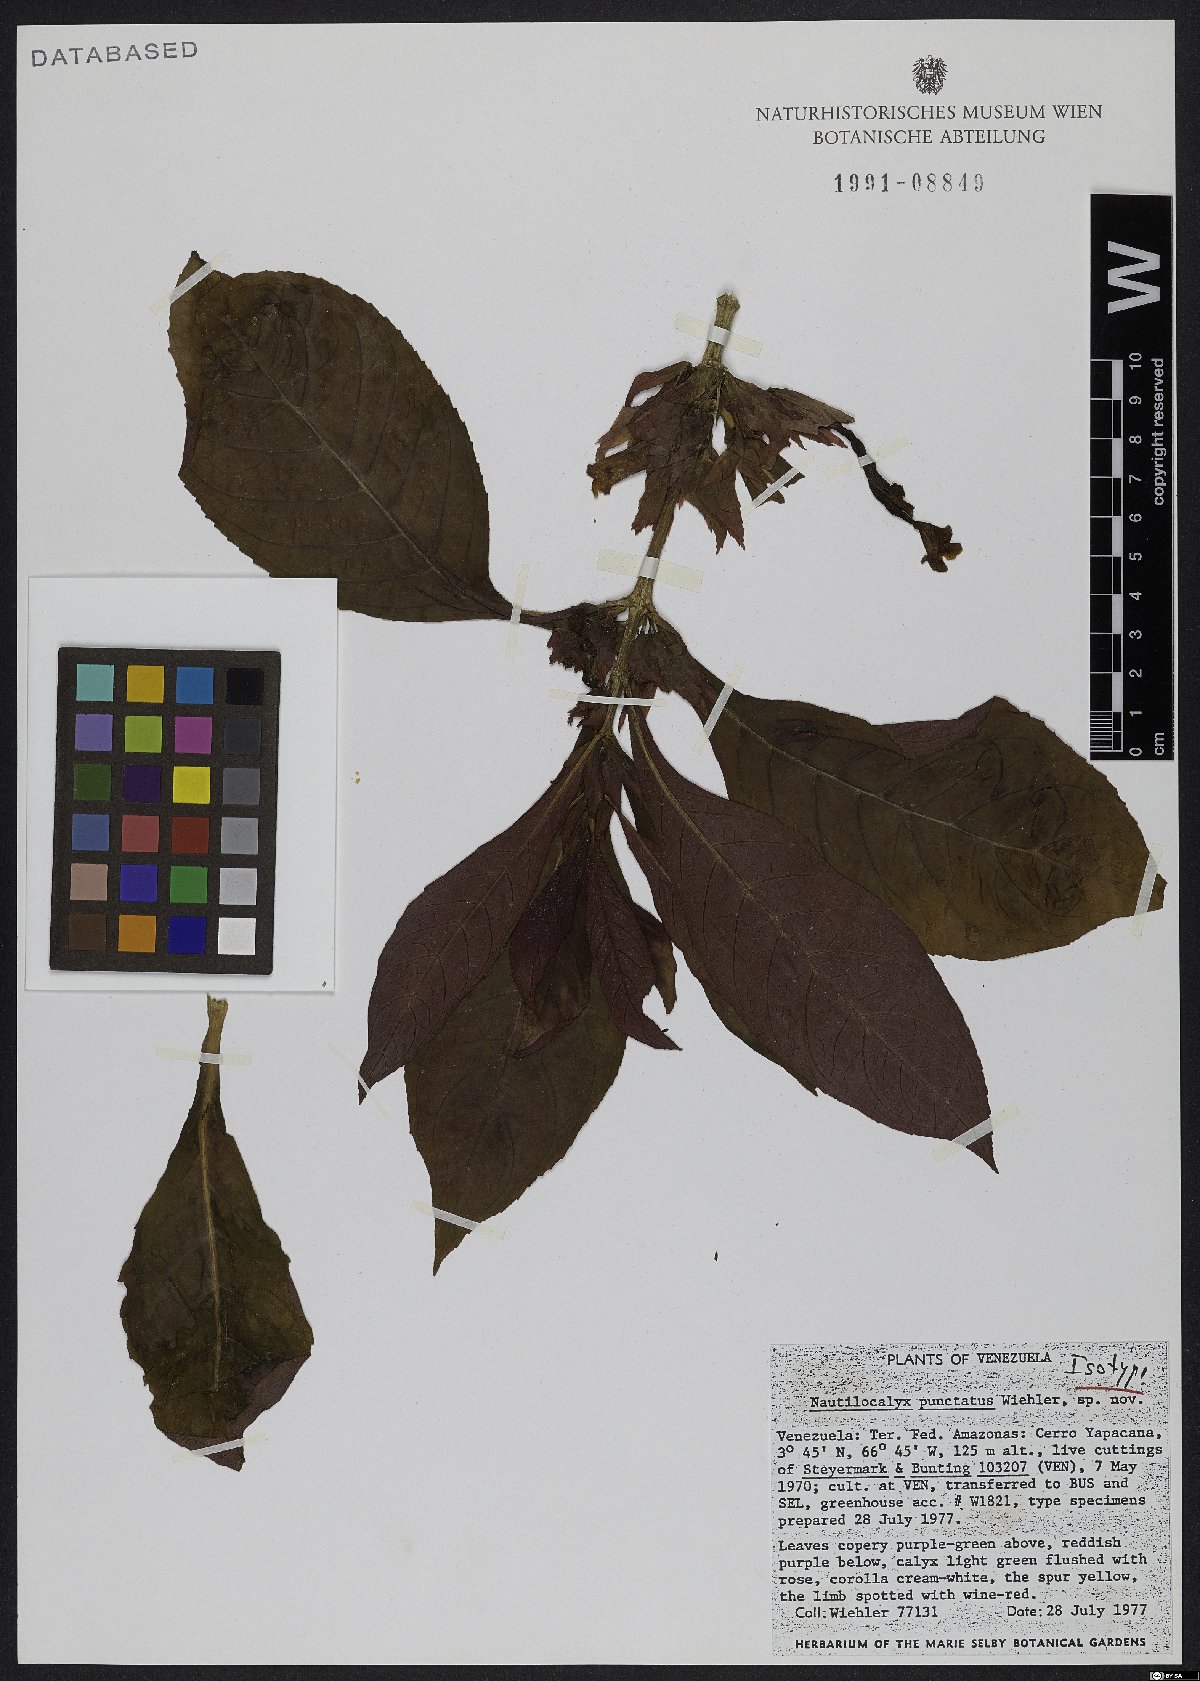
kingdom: Plantae
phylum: Tracheophyta
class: Magnoliopsida
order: Lamiales
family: Gesneriaceae
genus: Nautilocalyx
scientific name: Nautilocalyx punctatus
